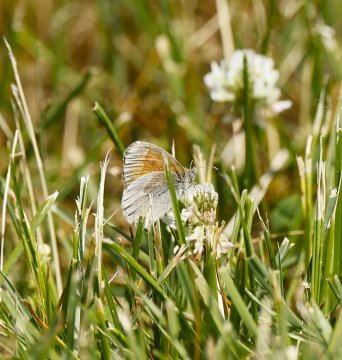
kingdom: Animalia
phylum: Arthropoda
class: Insecta
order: Lepidoptera
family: Nymphalidae
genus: Coenonympha
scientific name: Coenonympha tullia
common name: Large Heath
